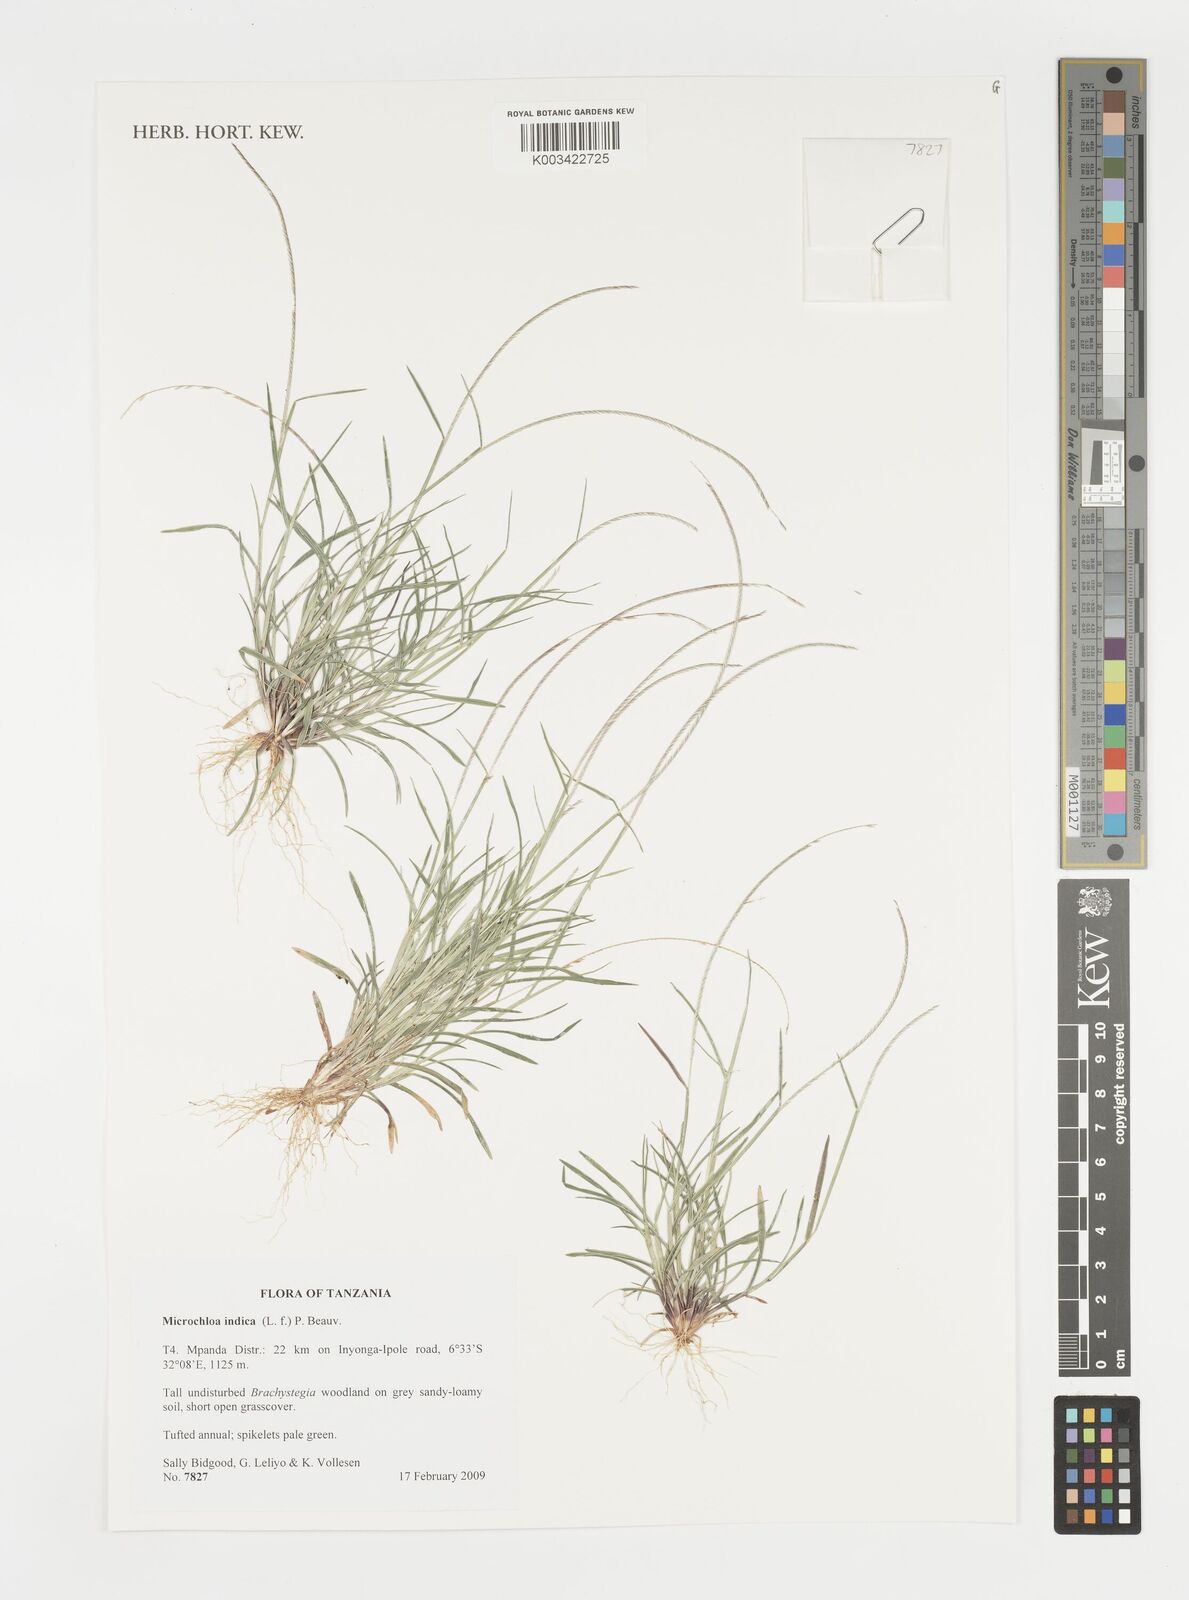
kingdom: Plantae
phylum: Tracheophyta
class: Liliopsida
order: Poales
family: Poaceae
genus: Microchloa
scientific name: Microchloa indica
